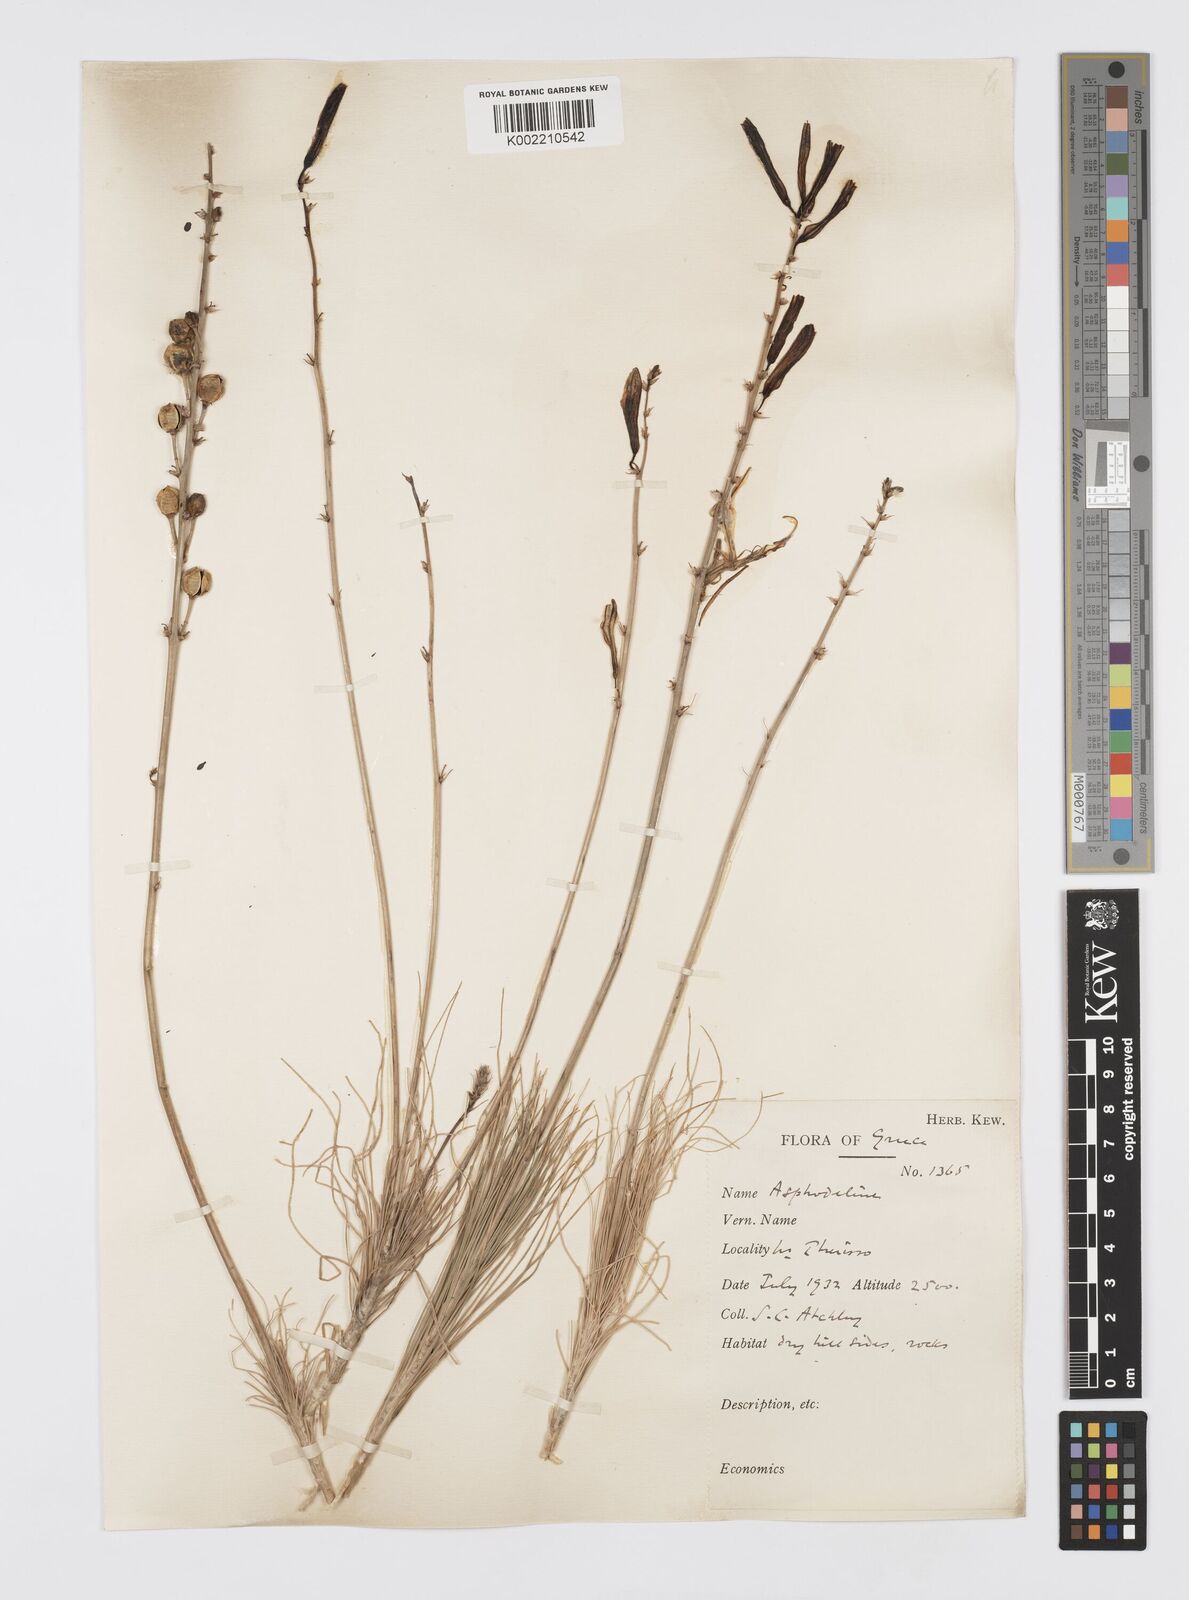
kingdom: Plantae
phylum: Tracheophyta
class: Liliopsida
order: Asparagales
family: Asphodelaceae
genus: Asphodeline
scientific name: Asphodeline liburnica
